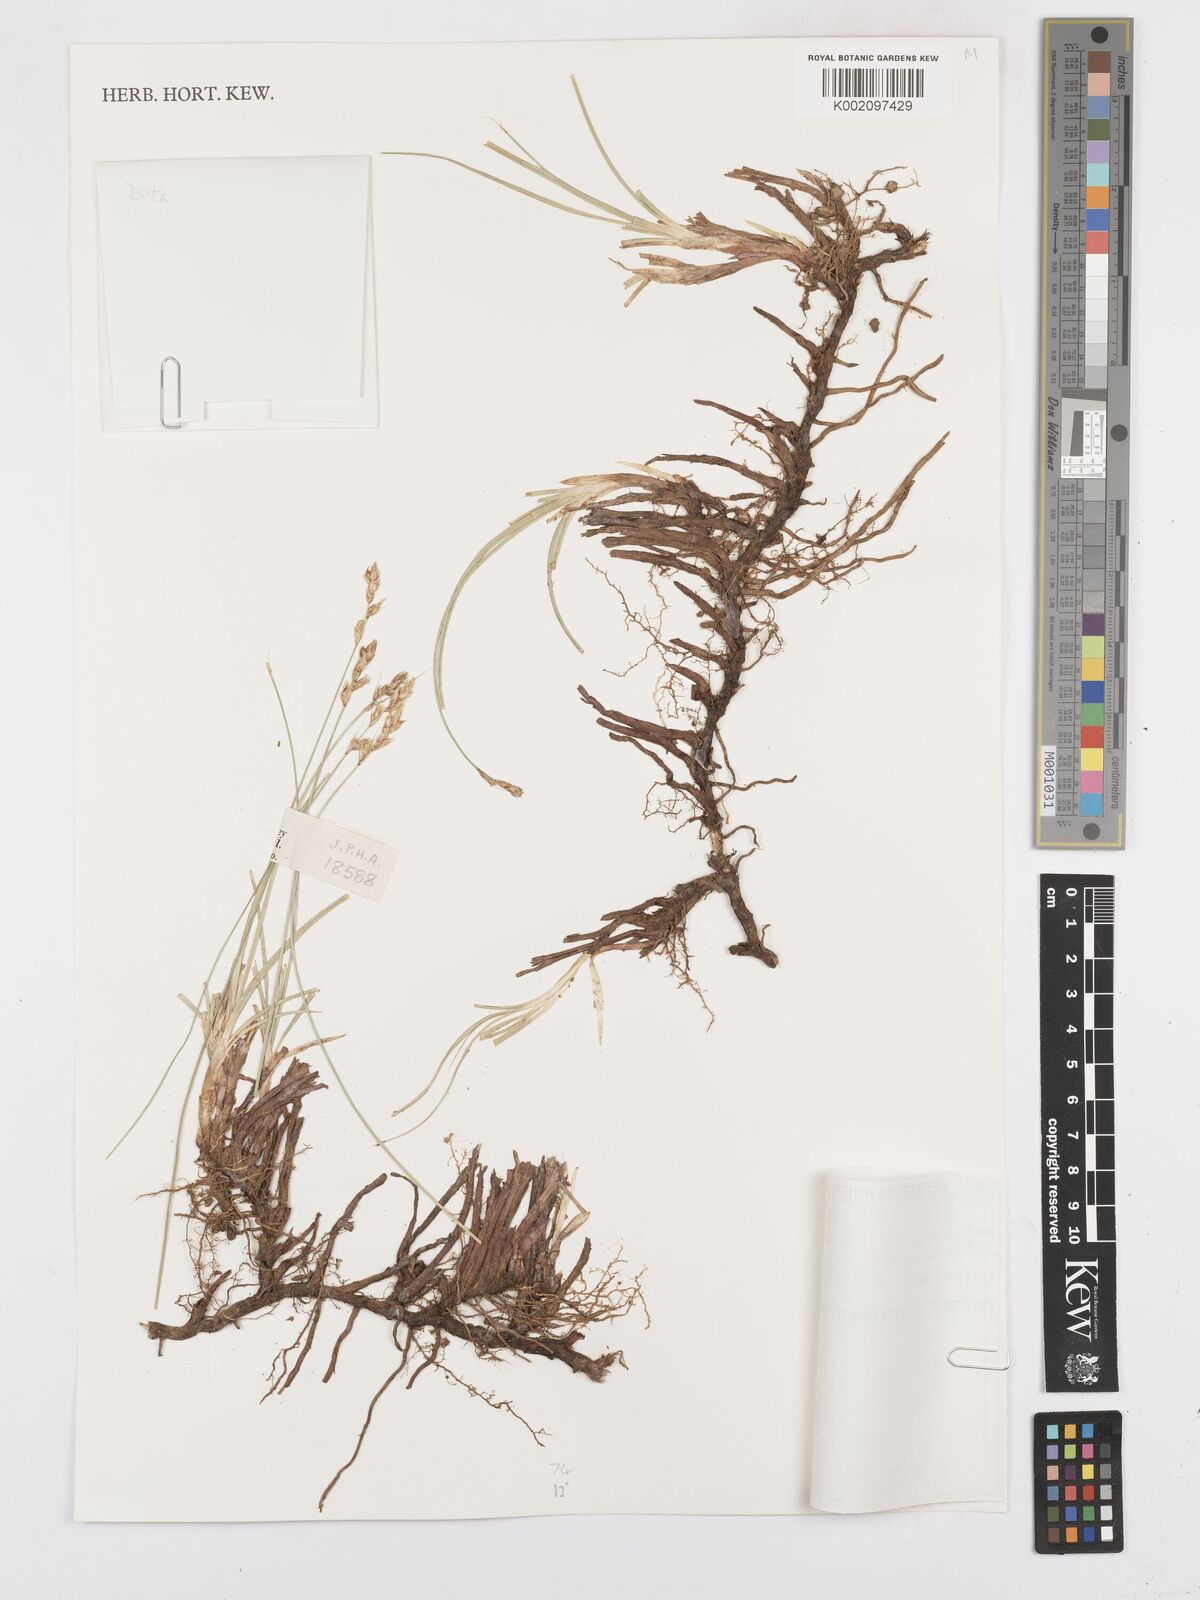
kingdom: Plantae
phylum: Tracheophyta
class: Liliopsida
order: Poales
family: Cyperaceae
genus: Carex
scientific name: Carex divisa
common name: Divided sedge
